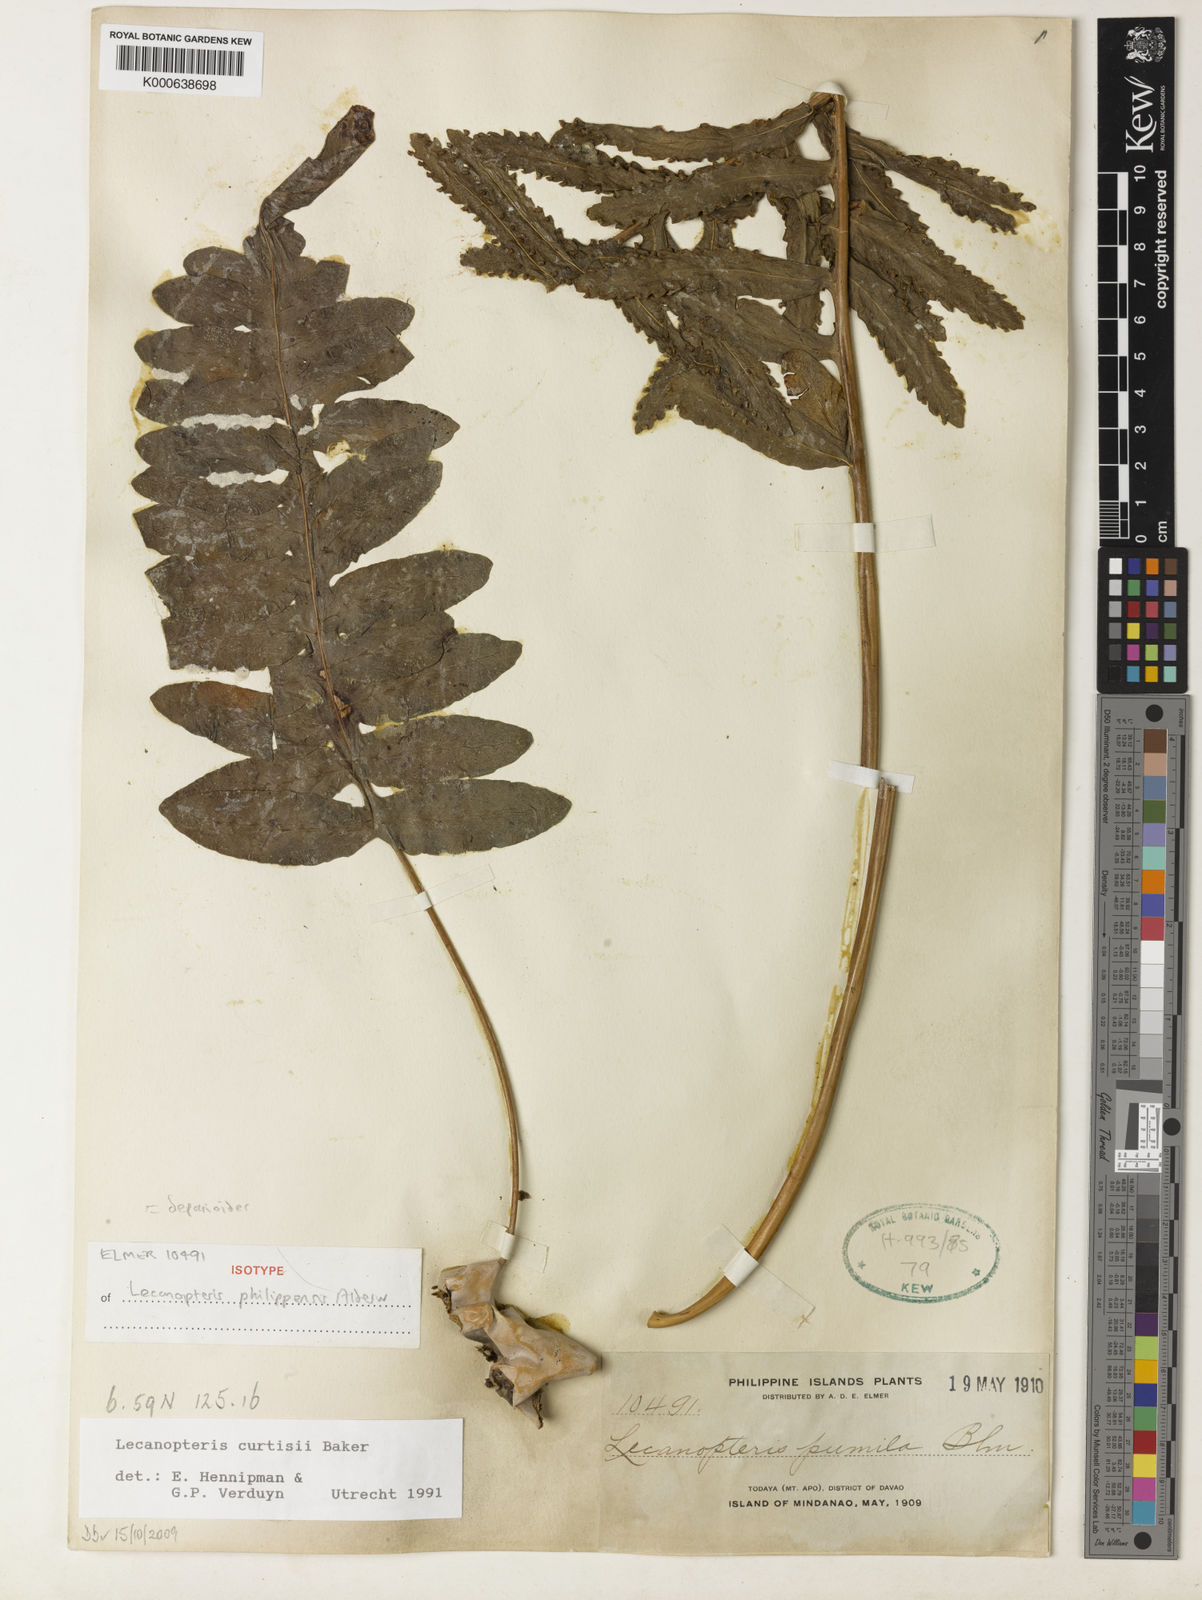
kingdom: Plantae
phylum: Tracheophyta
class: Polypodiopsida
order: Polypodiales
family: Polypodiaceae
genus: Lecanopteris
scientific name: Lecanopteris deparioides
